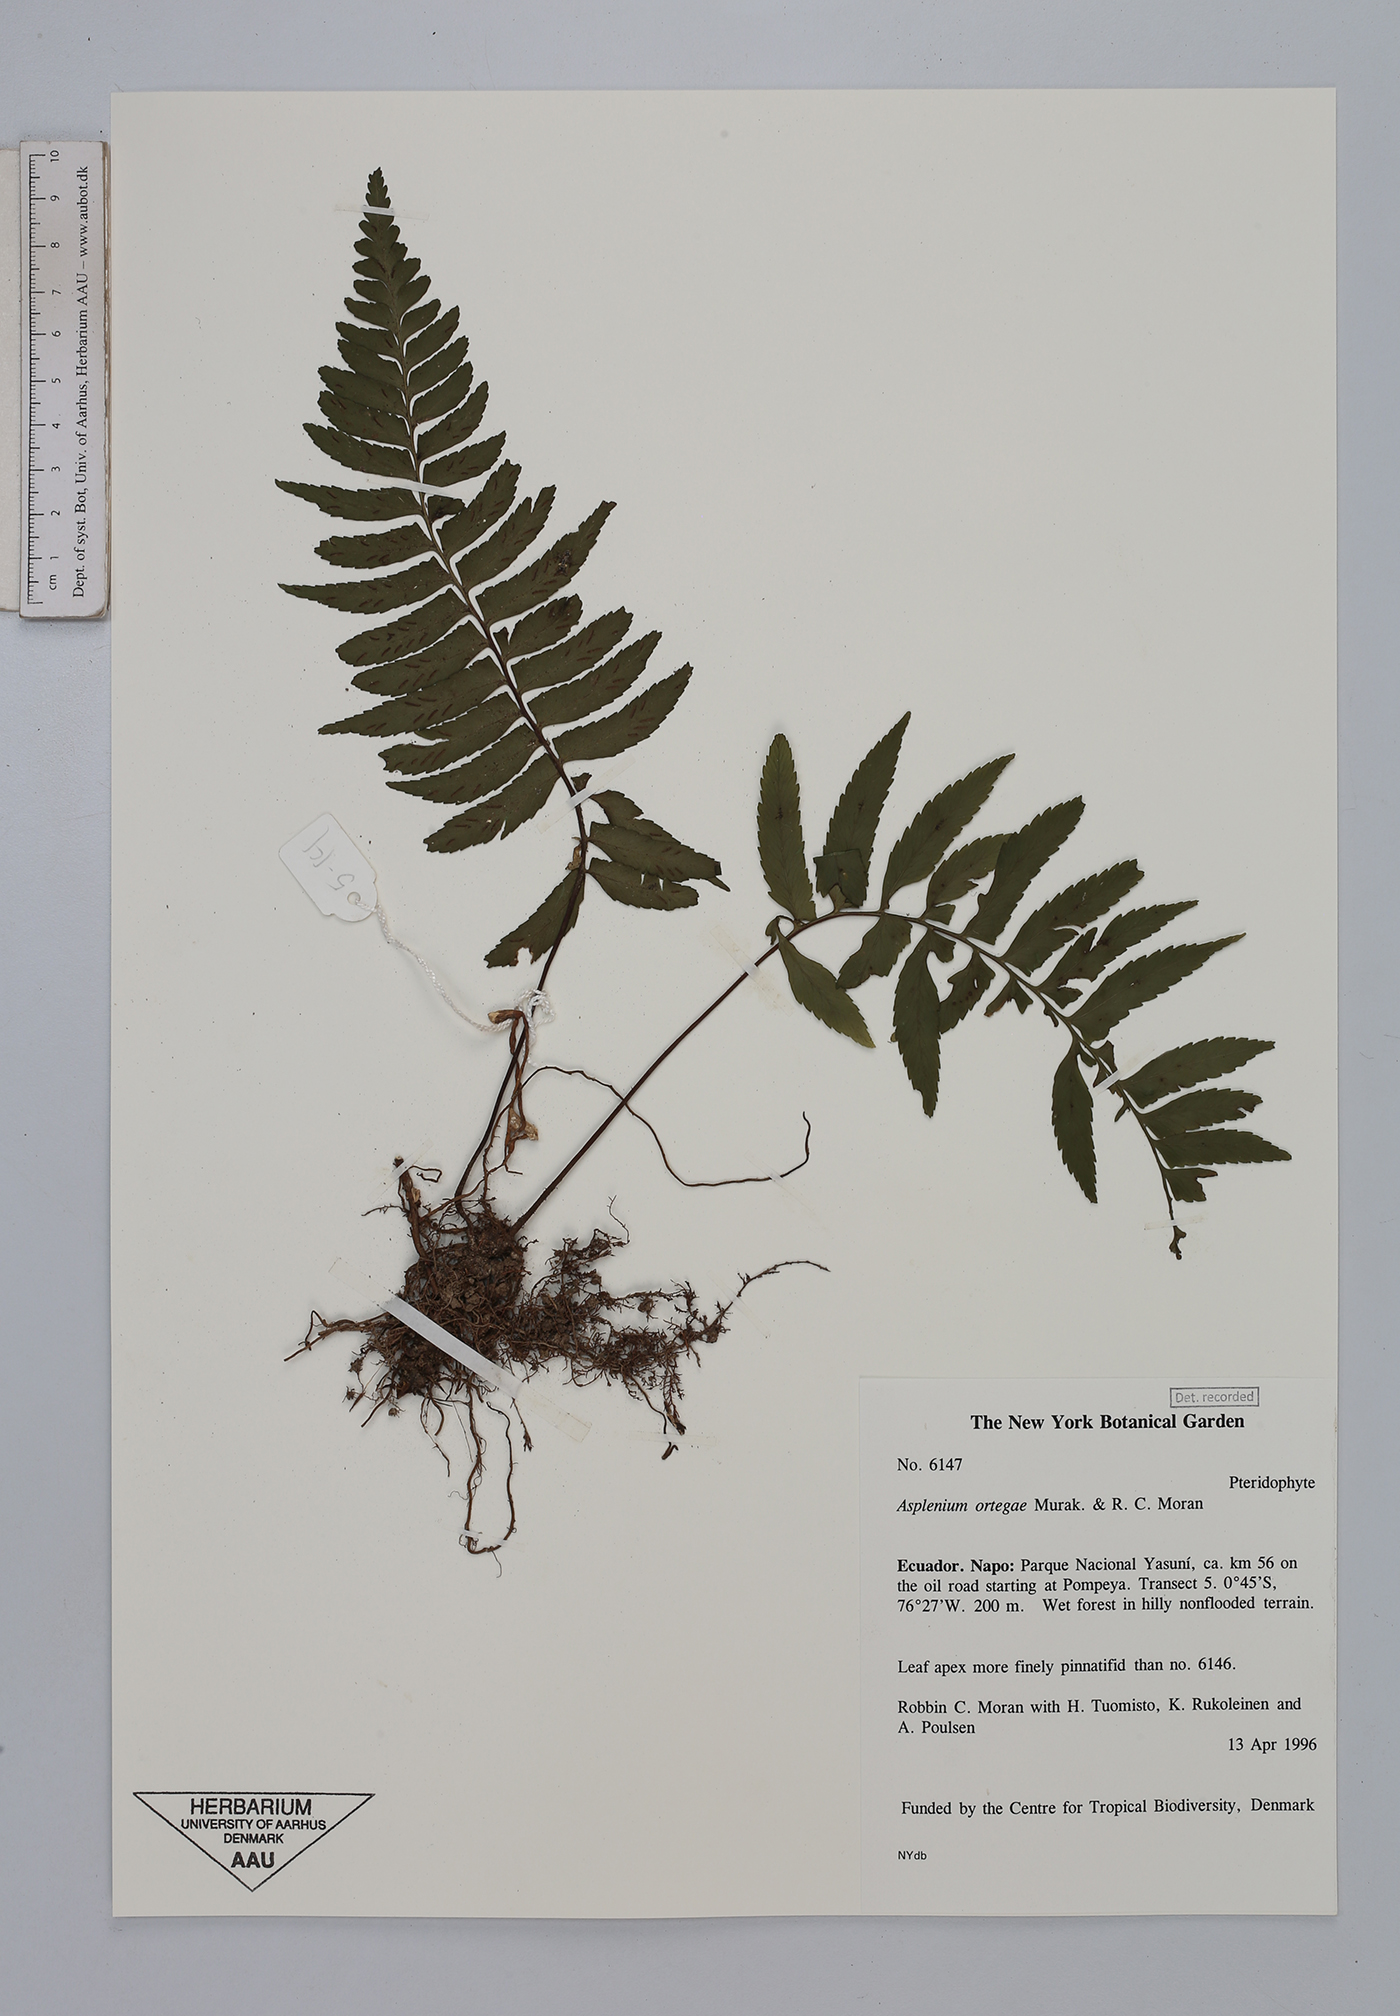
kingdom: Plantae
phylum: Tracheophyta
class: Polypodiopsida
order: Polypodiales
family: Aspleniaceae
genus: Hymenasplenium
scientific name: Hymenasplenium ortegae
